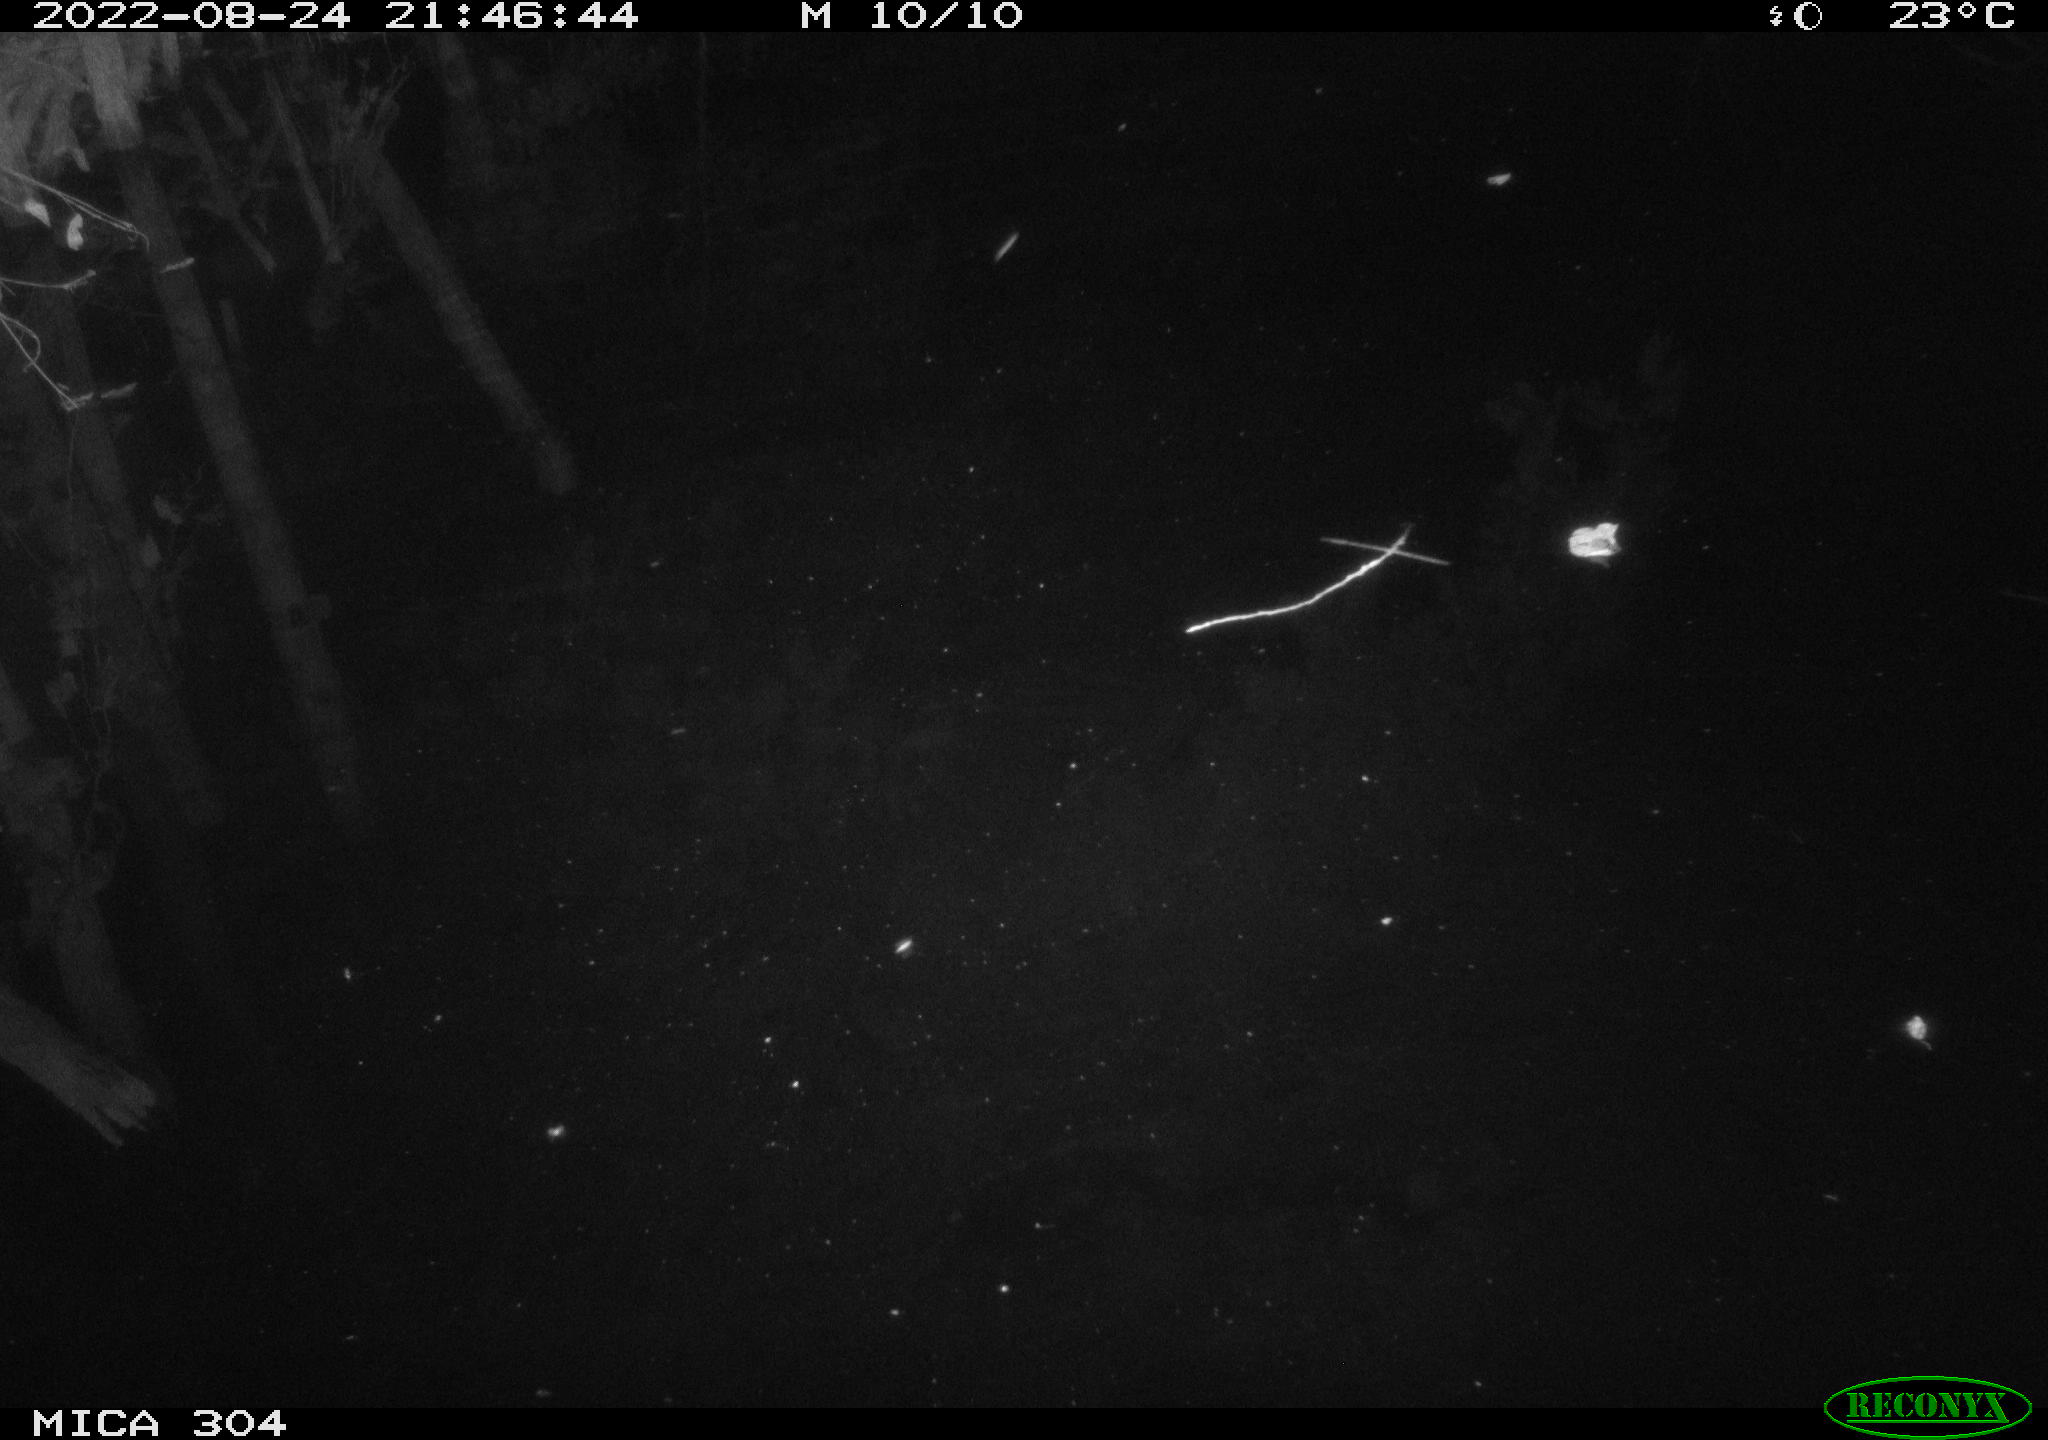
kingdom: Animalia
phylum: Chordata
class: Mammalia
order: Rodentia
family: Muridae
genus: Rattus
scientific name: Rattus norvegicus
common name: Brown rat
